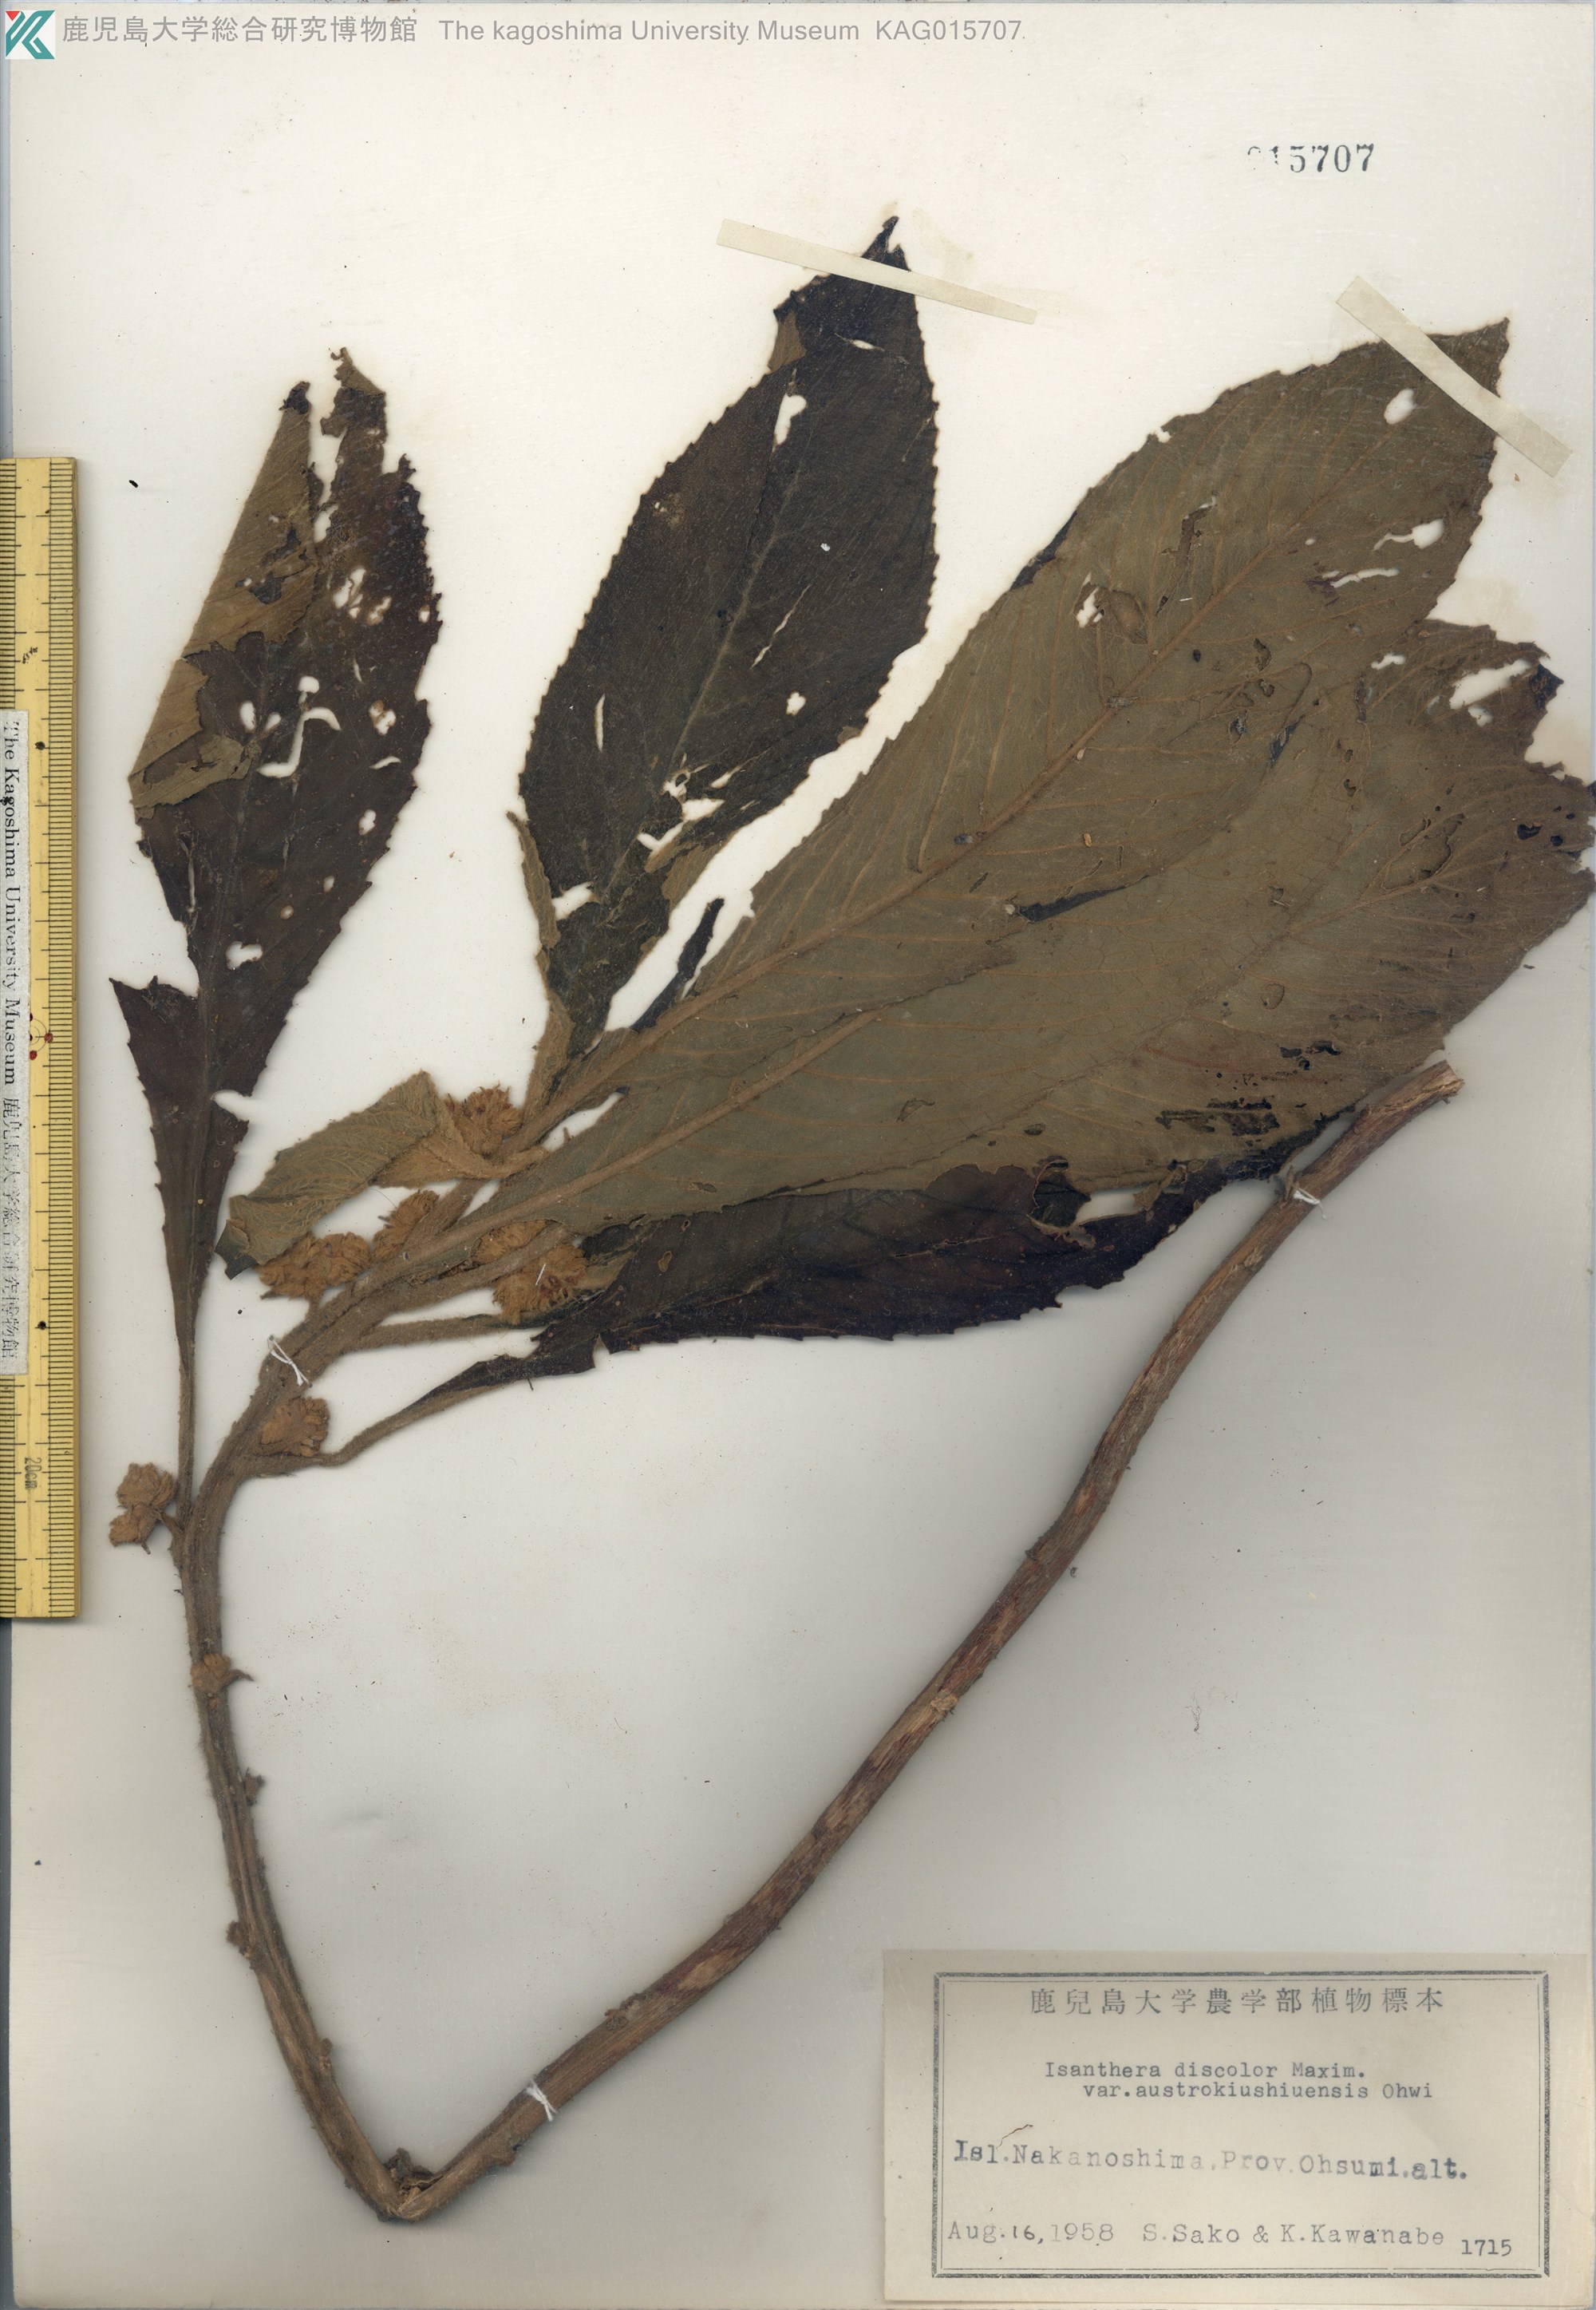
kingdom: Plantae
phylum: Tracheophyta
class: Magnoliopsida
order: Lamiales
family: Gesneriaceae
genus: Rhynchotechum
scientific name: Rhynchotechum discolor
